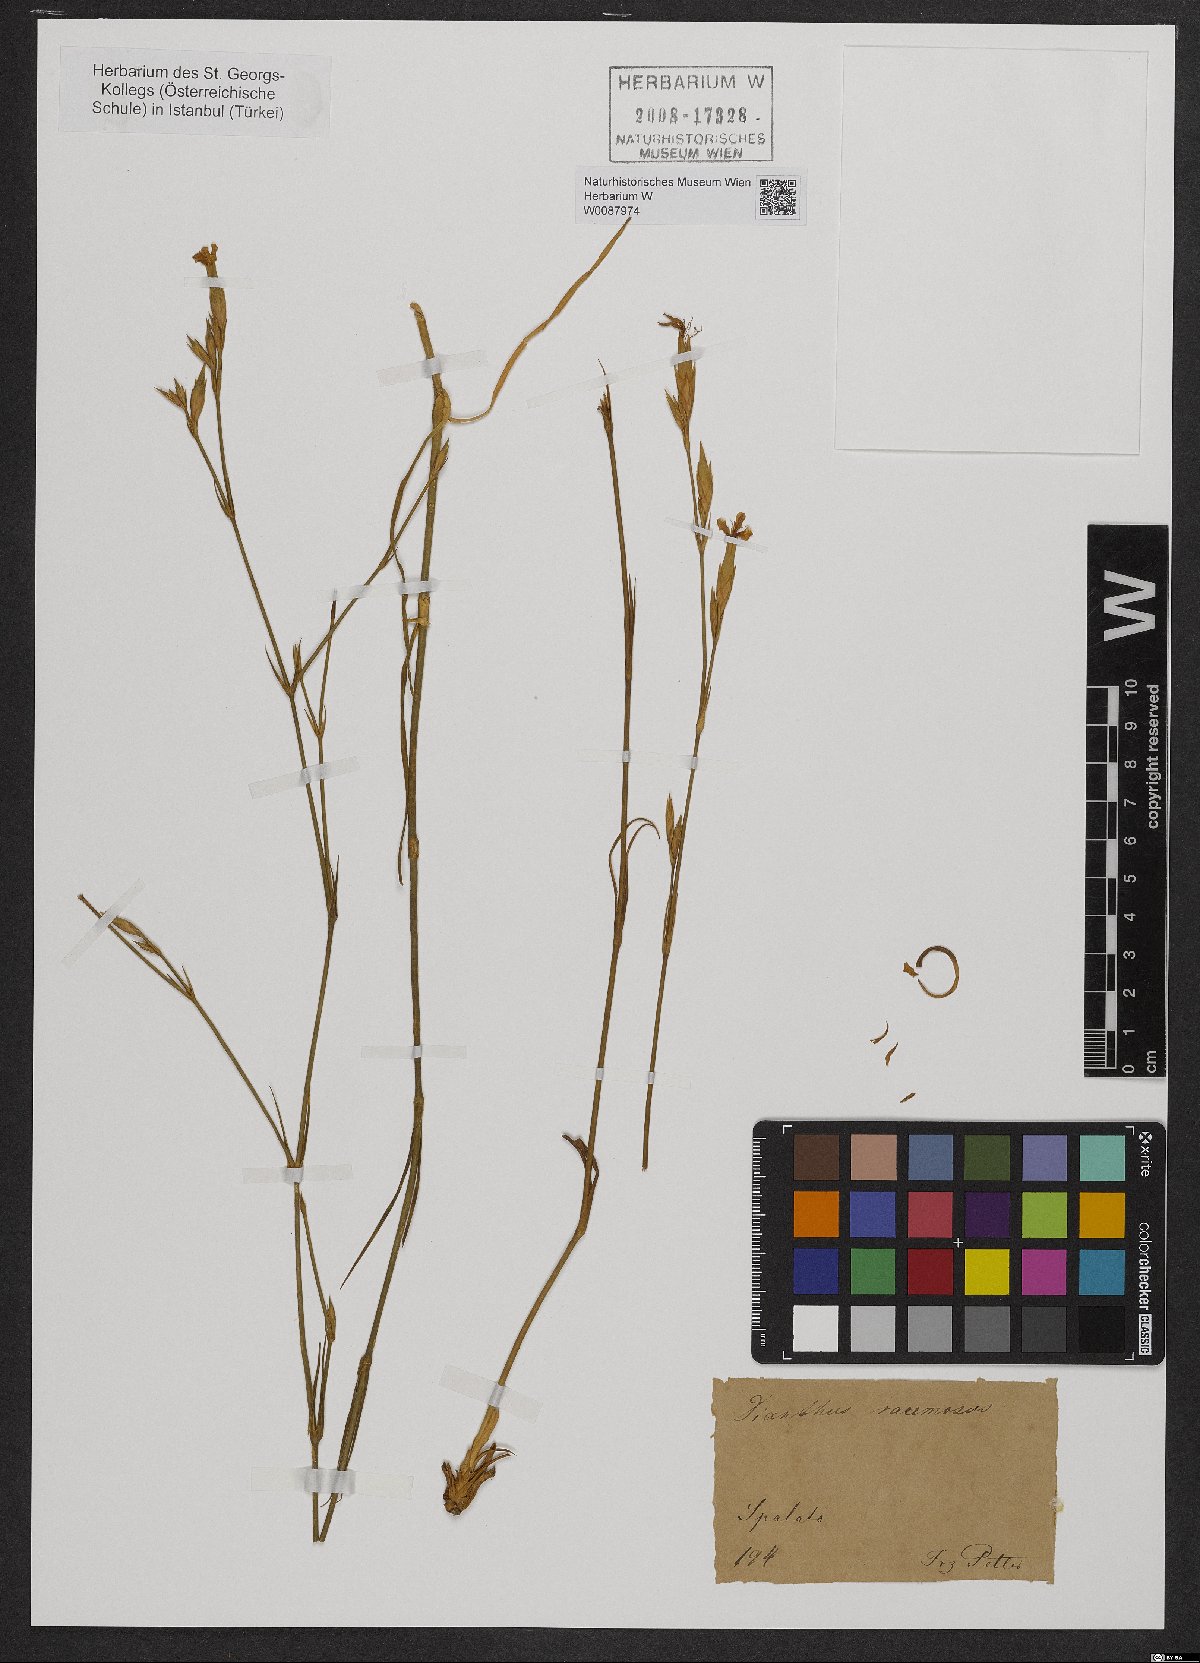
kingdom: Plantae
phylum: Tracheophyta
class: Magnoliopsida
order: Caryophyllales
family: Caryophyllaceae
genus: Dianthus
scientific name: Dianthus ciliatus
